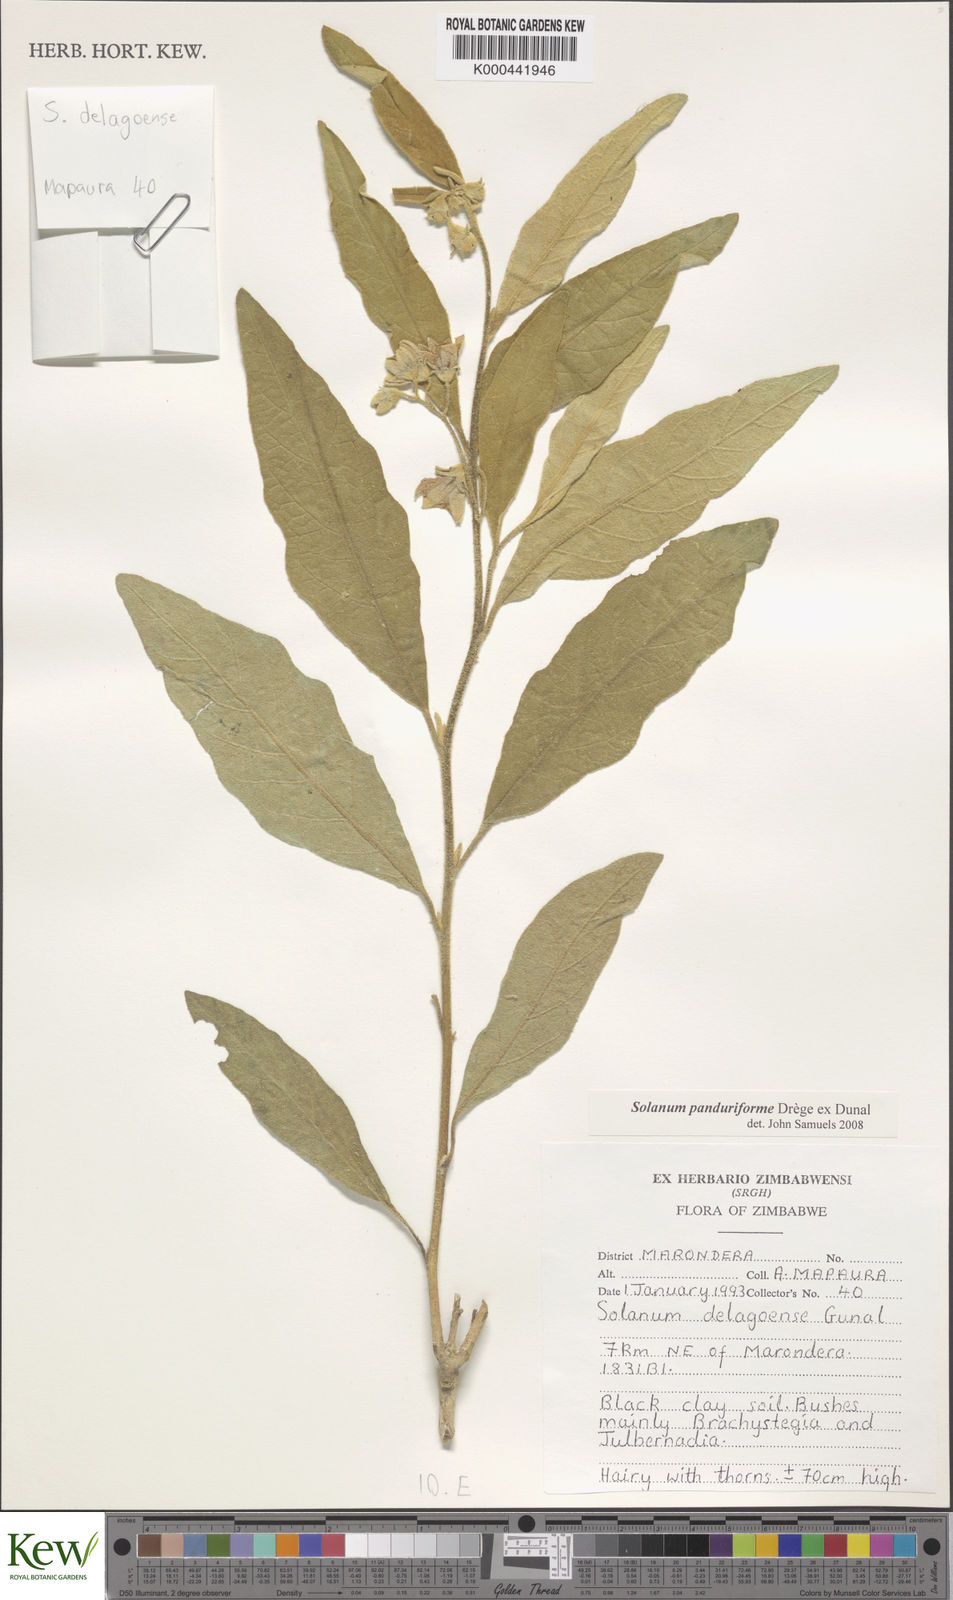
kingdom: Plantae
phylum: Tracheophyta
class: Magnoliopsida
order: Solanales
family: Solanaceae
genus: Solanum
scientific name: Solanum campylacanthum
